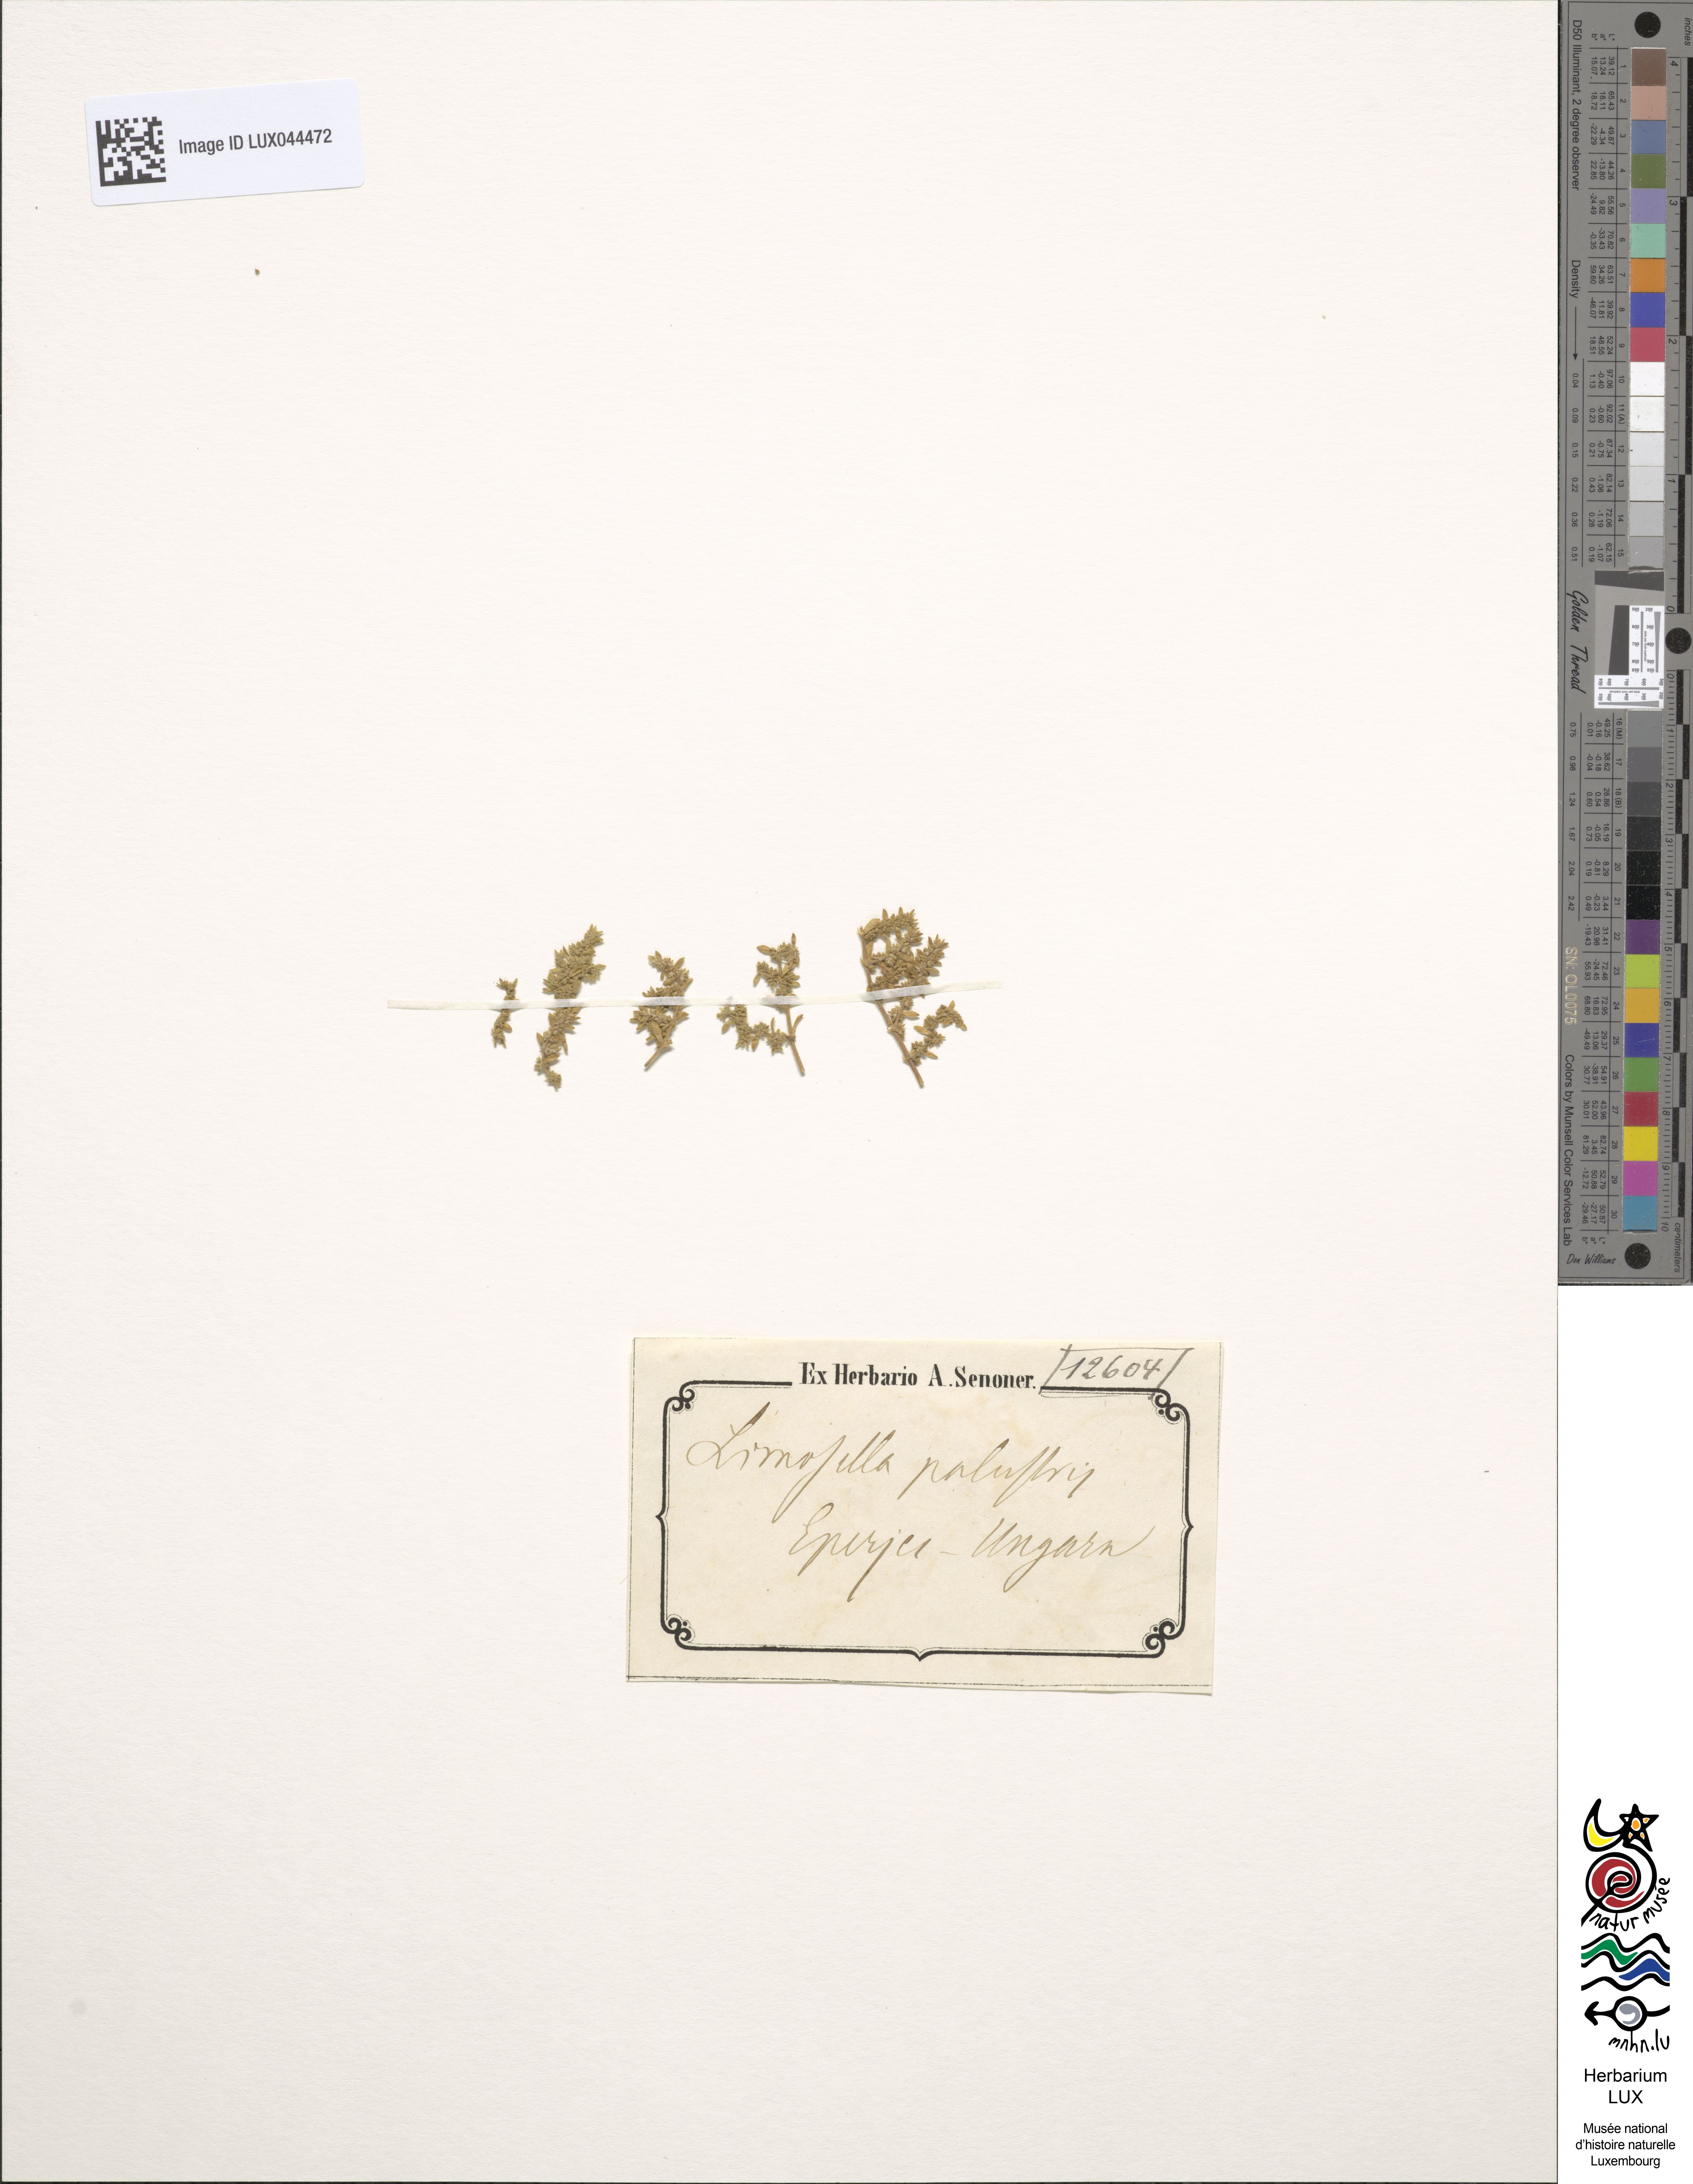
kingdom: Plantae
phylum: Tracheophyta
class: Magnoliopsida
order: Lamiales
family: Scrophulariaceae
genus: Limosella
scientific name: Limosella aquatica
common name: Mudwort
